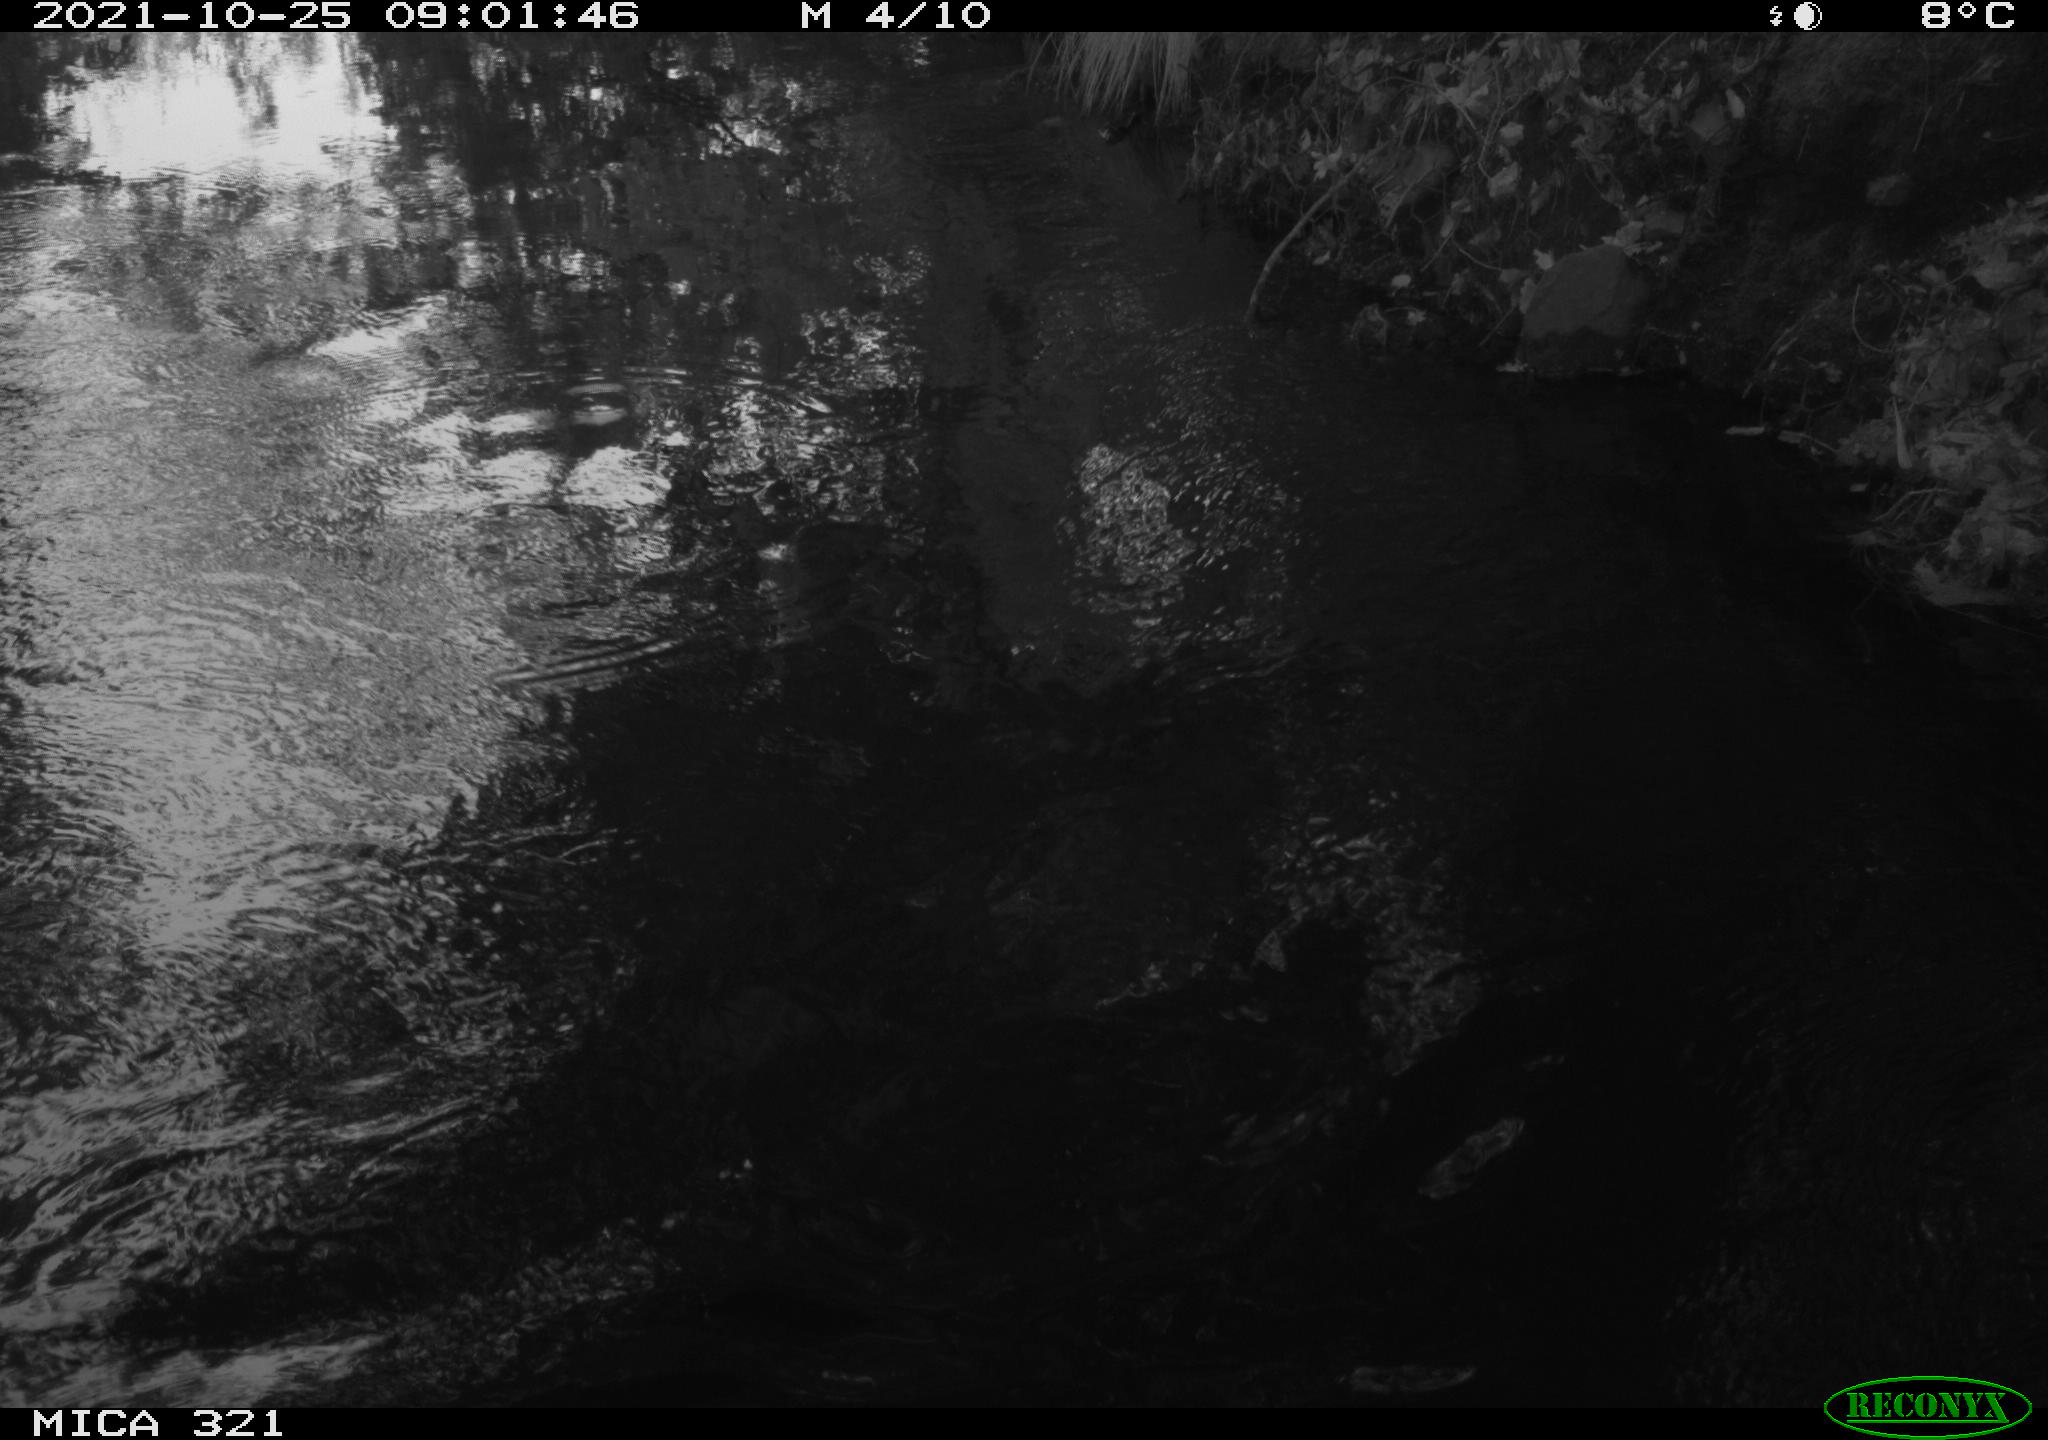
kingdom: Animalia
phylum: Chordata
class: Aves
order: Anseriformes
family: Anatidae
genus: Anas
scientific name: Anas platyrhynchos
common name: Mallard
